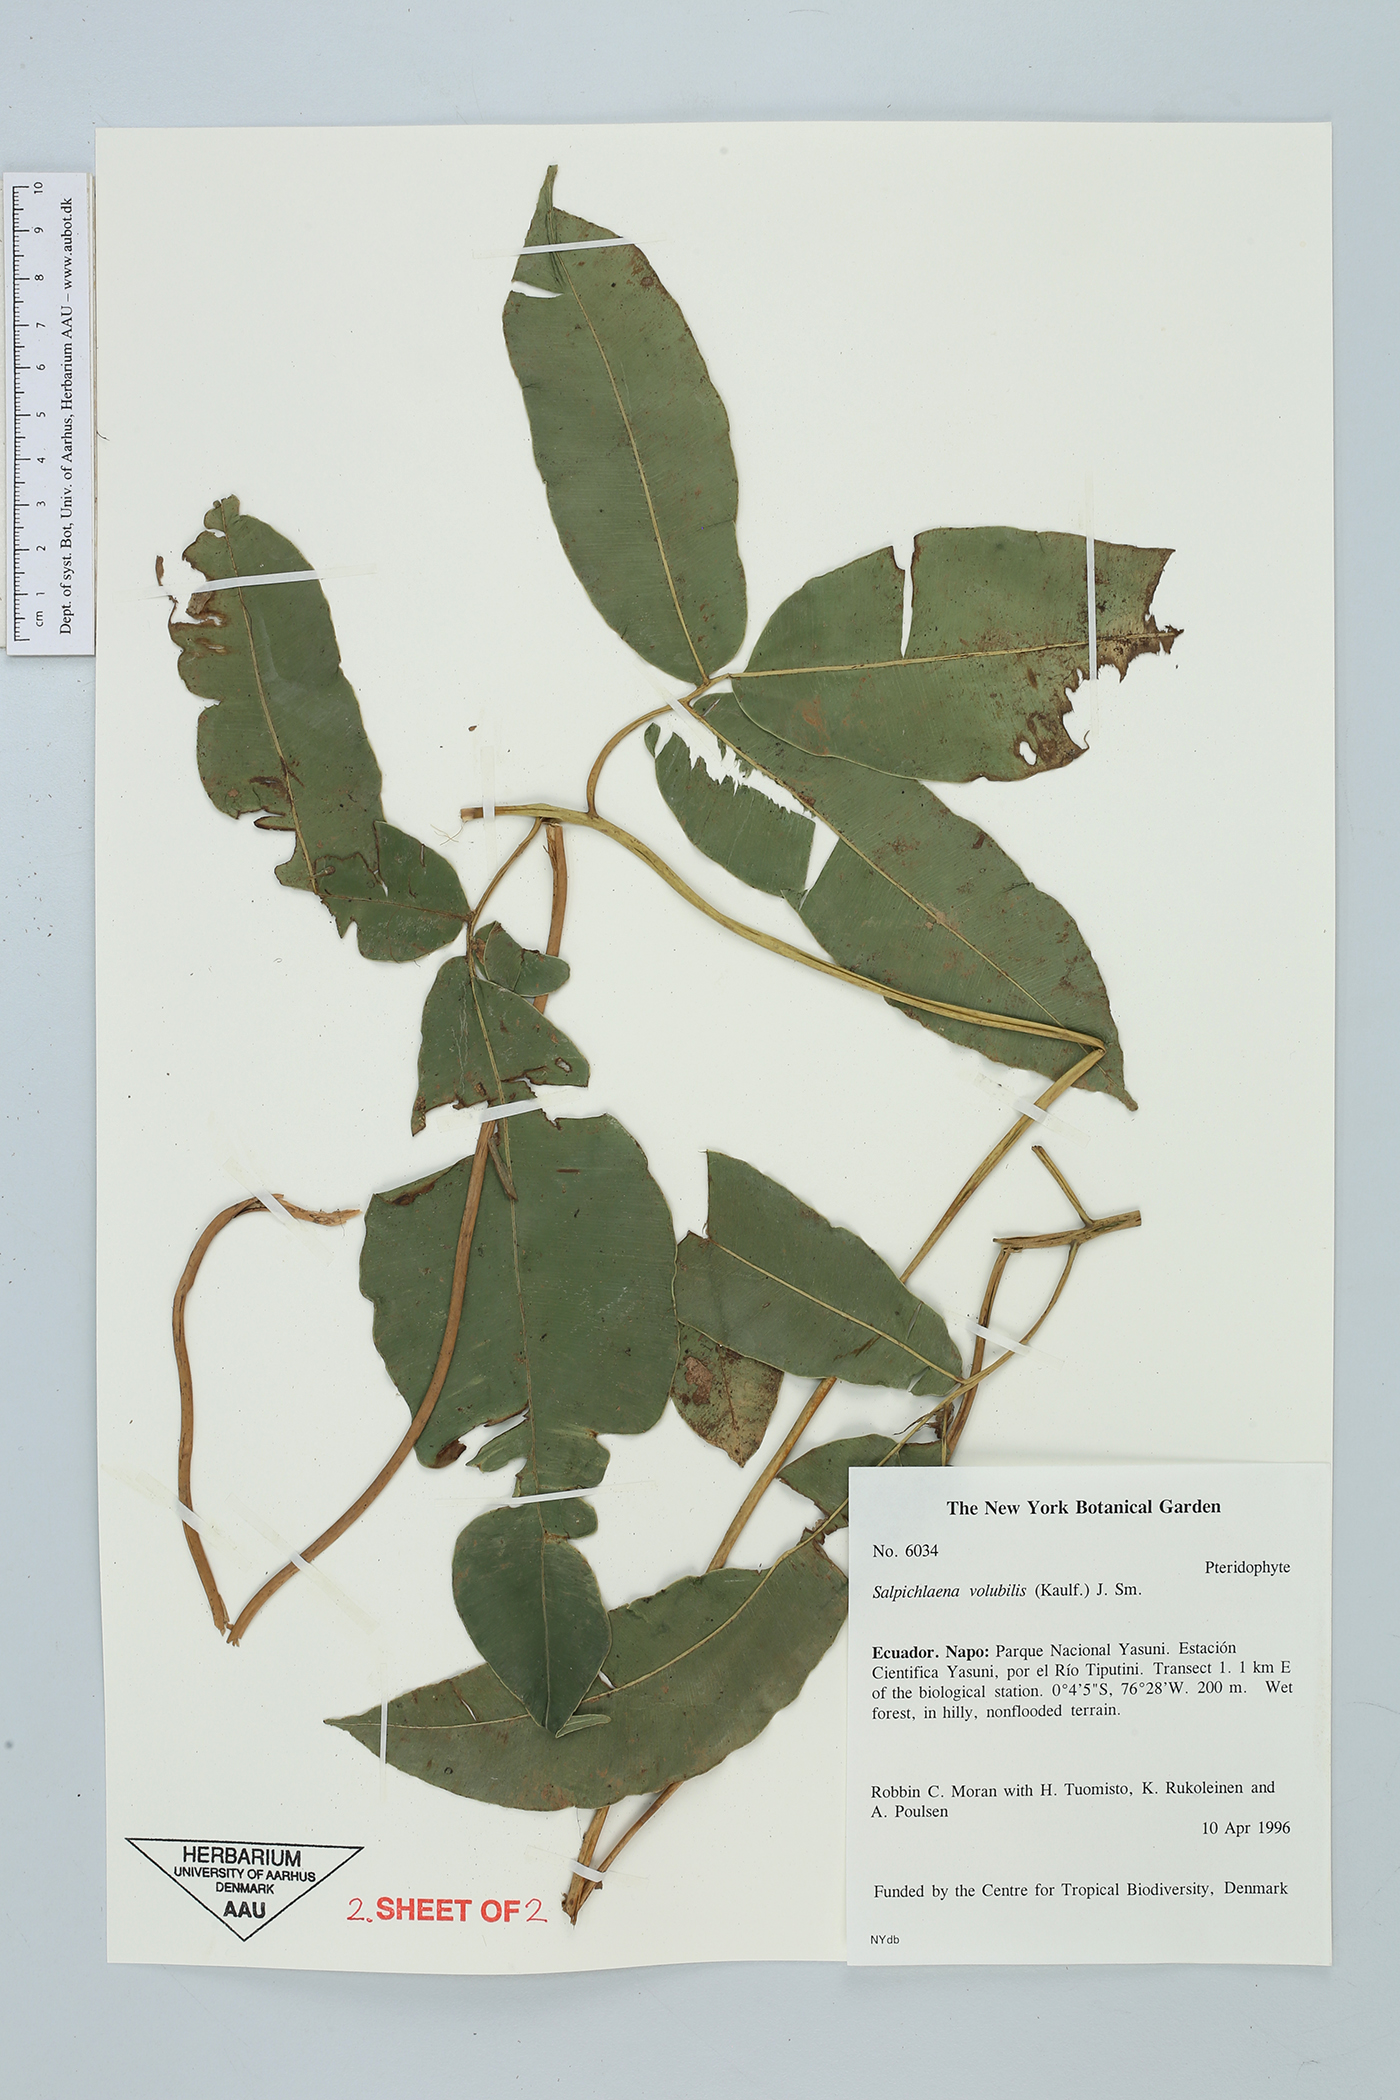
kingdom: Plantae
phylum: Tracheophyta
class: Polypodiopsida
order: Polypodiales
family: Blechnaceae
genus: Salpichlaena
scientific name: Salpichlaena volubilis
